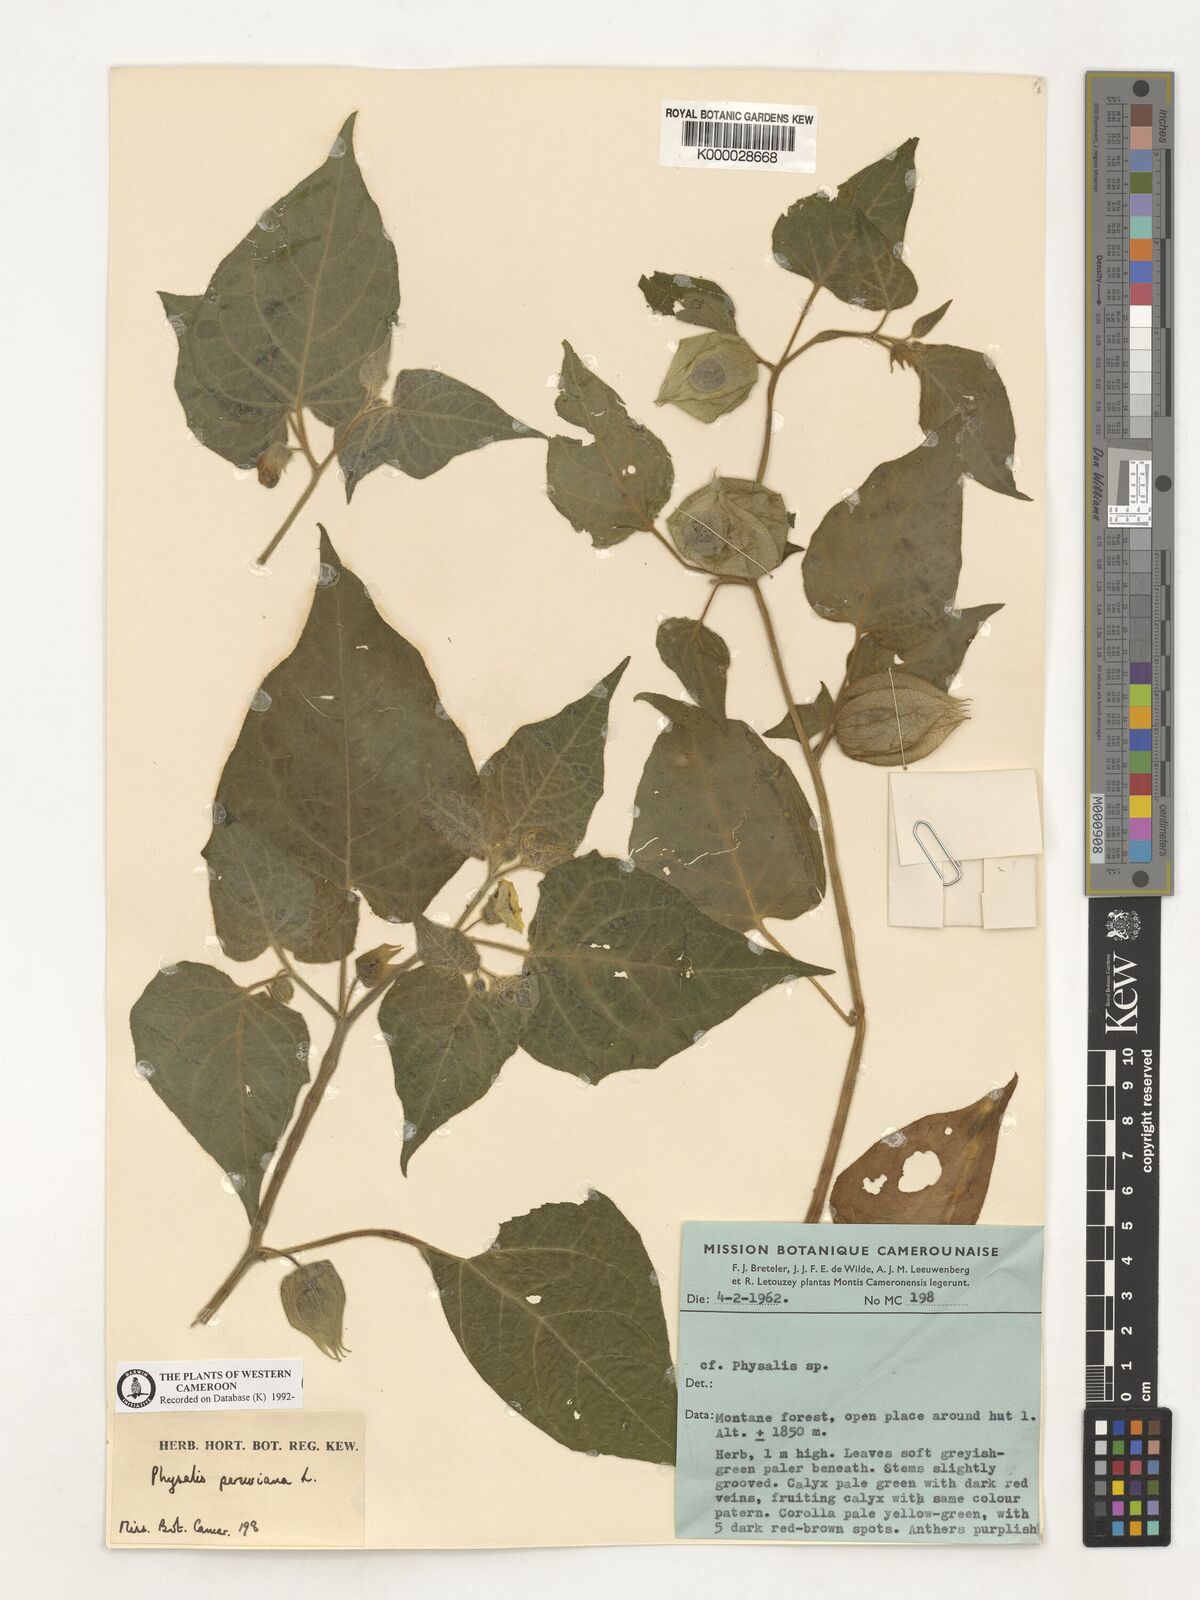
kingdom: Plantae
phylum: Tracheophyta
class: Magnoliopsida
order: Solanales
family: Solanaceae
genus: Physalis
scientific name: Physalis peruviana
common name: Cape-gooseberry
